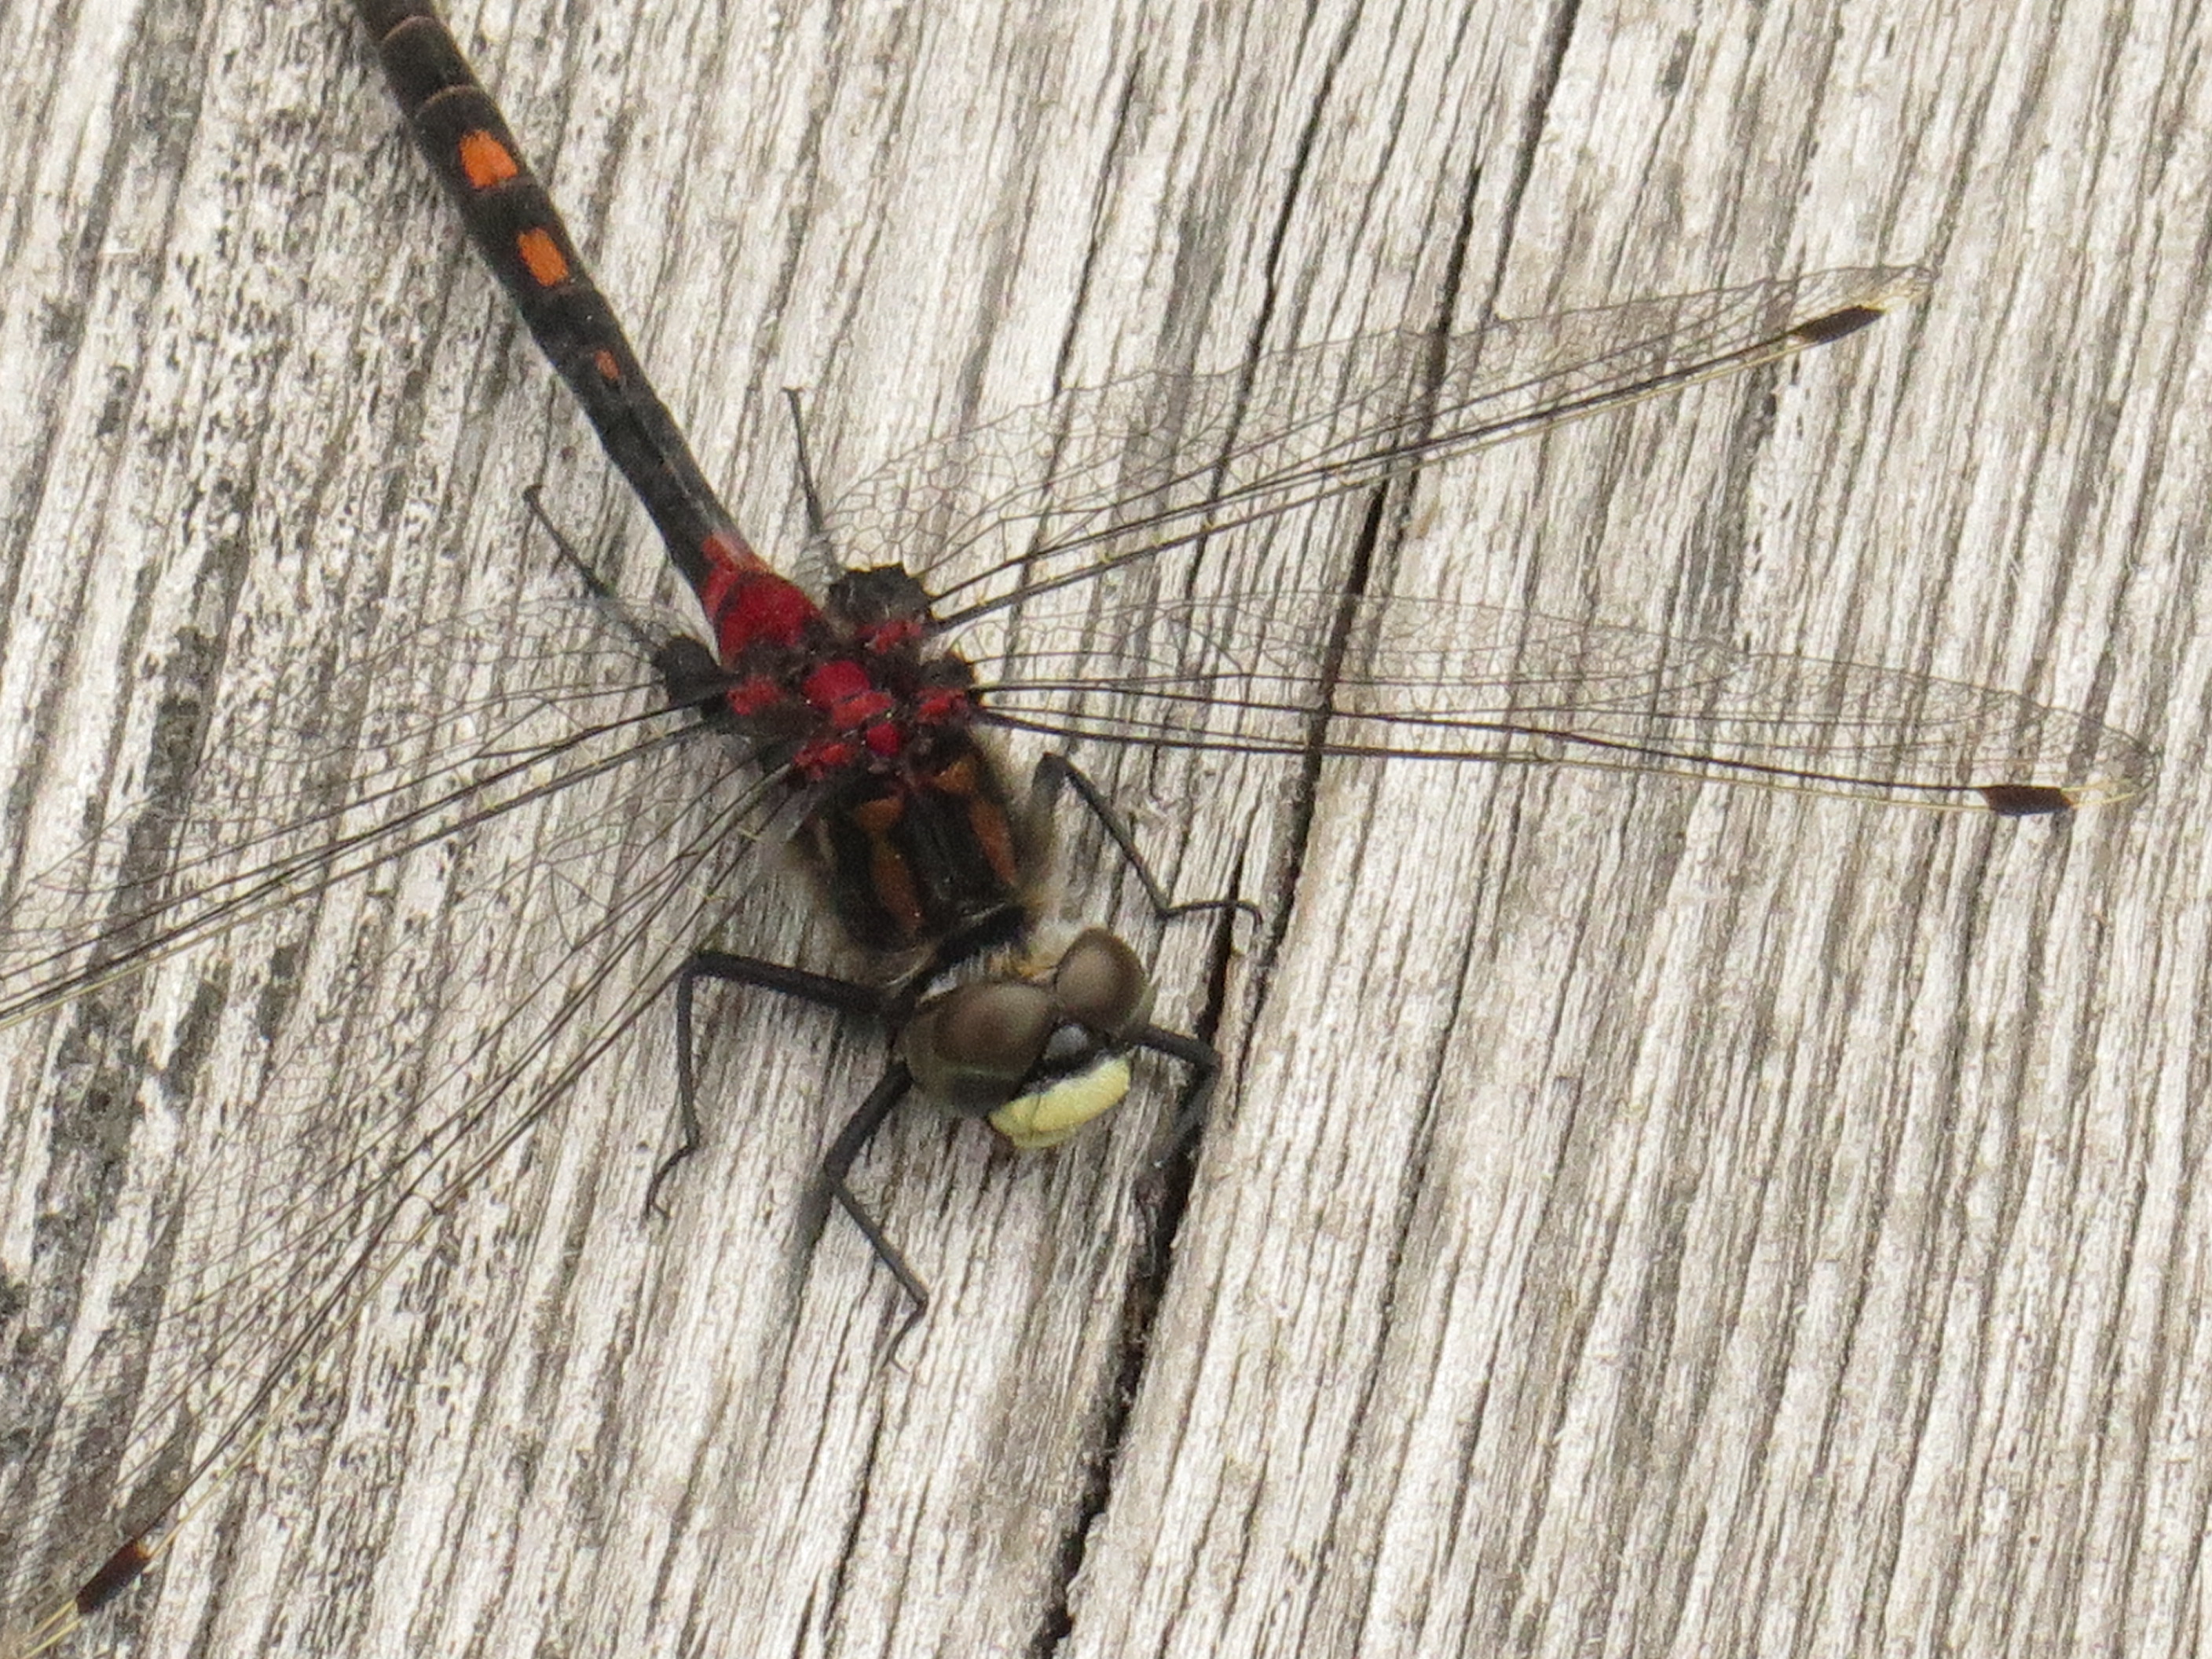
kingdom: Animalia
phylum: Arthropoda
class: Insecta
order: Odonata
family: Libellulidae
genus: Leucorrhinia
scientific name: Leucorrhinia dubia
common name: White-faced darter
